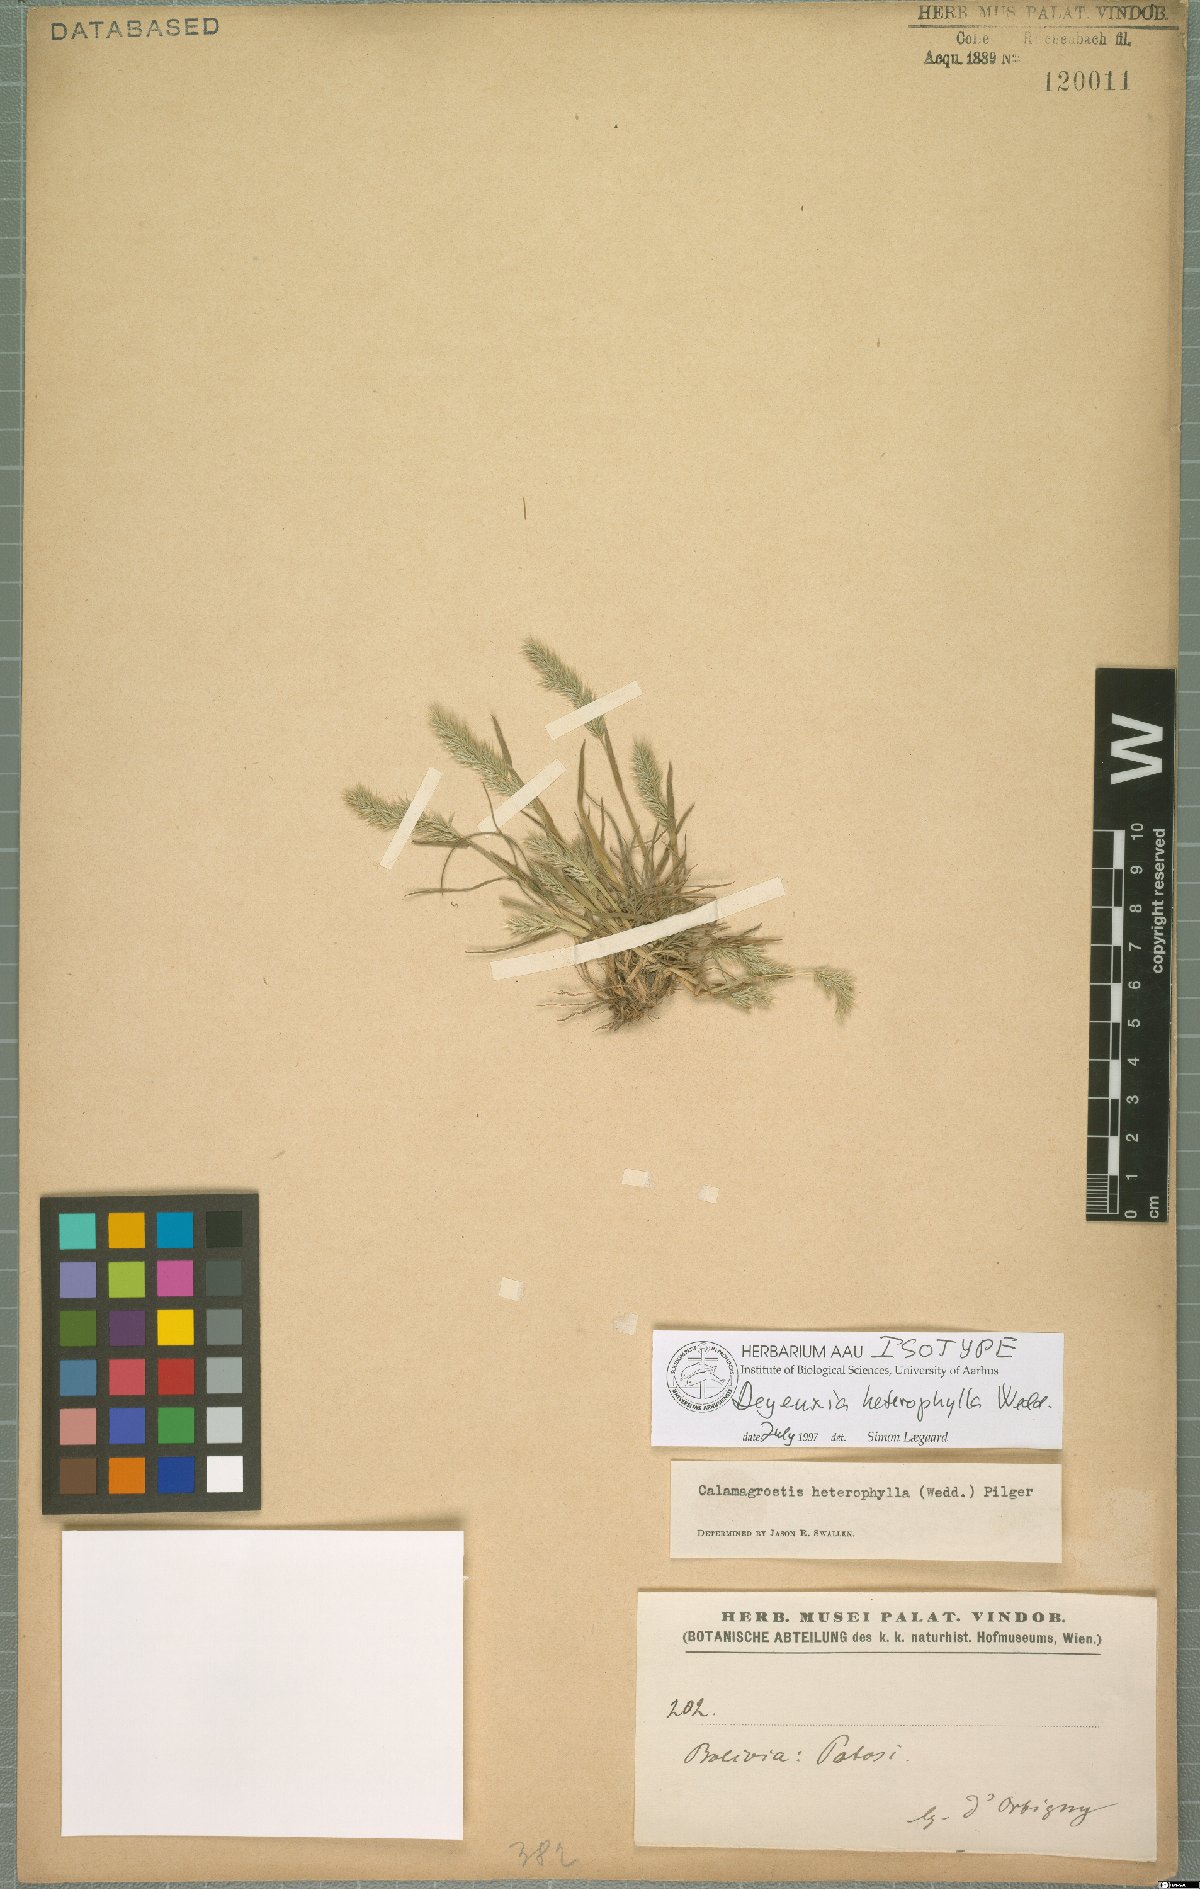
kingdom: Plantae
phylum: Tracheophyta
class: Liliopsida
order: Poales
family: Poaceae
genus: Cinnagrostis
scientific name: Cinnagrostis heterophylla
